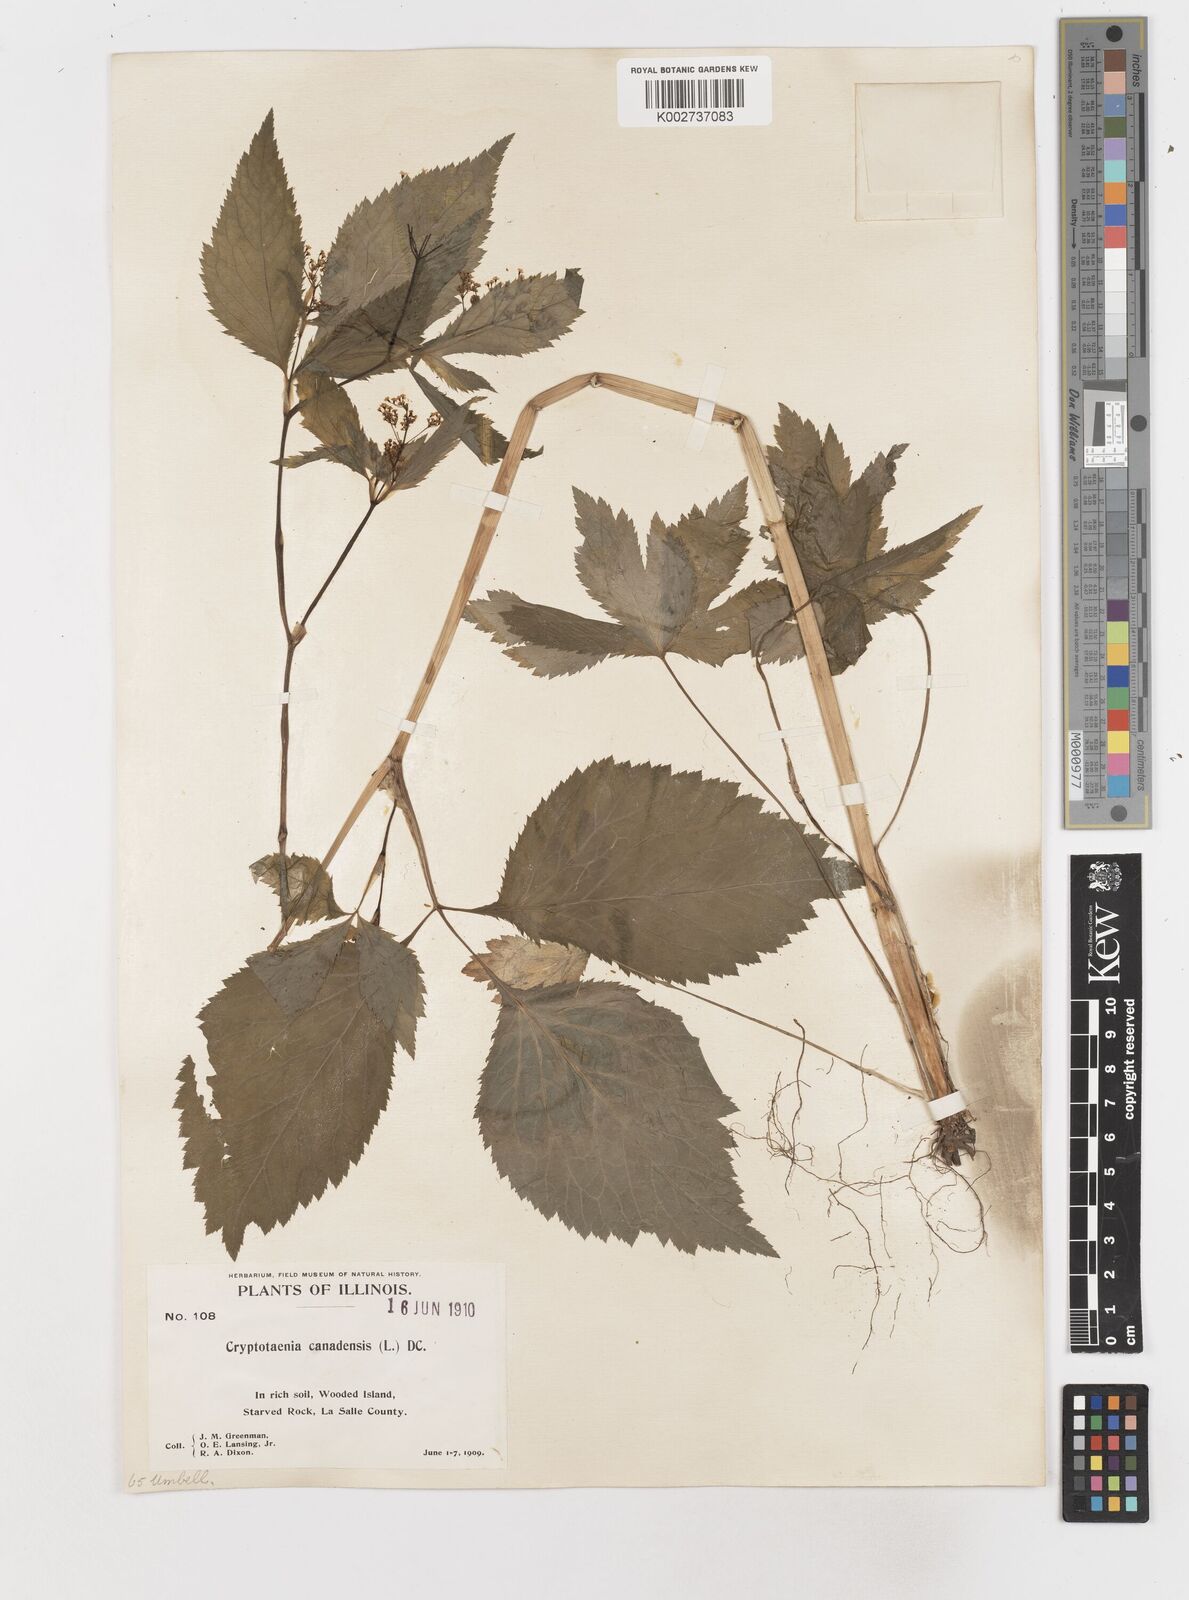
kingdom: Plantae
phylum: Tracheophyta
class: Magnoliopsida
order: Apiales
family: Apiaceae
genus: Cryptotaenia
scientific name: Cryptotaenia canadensis
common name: Honewort
